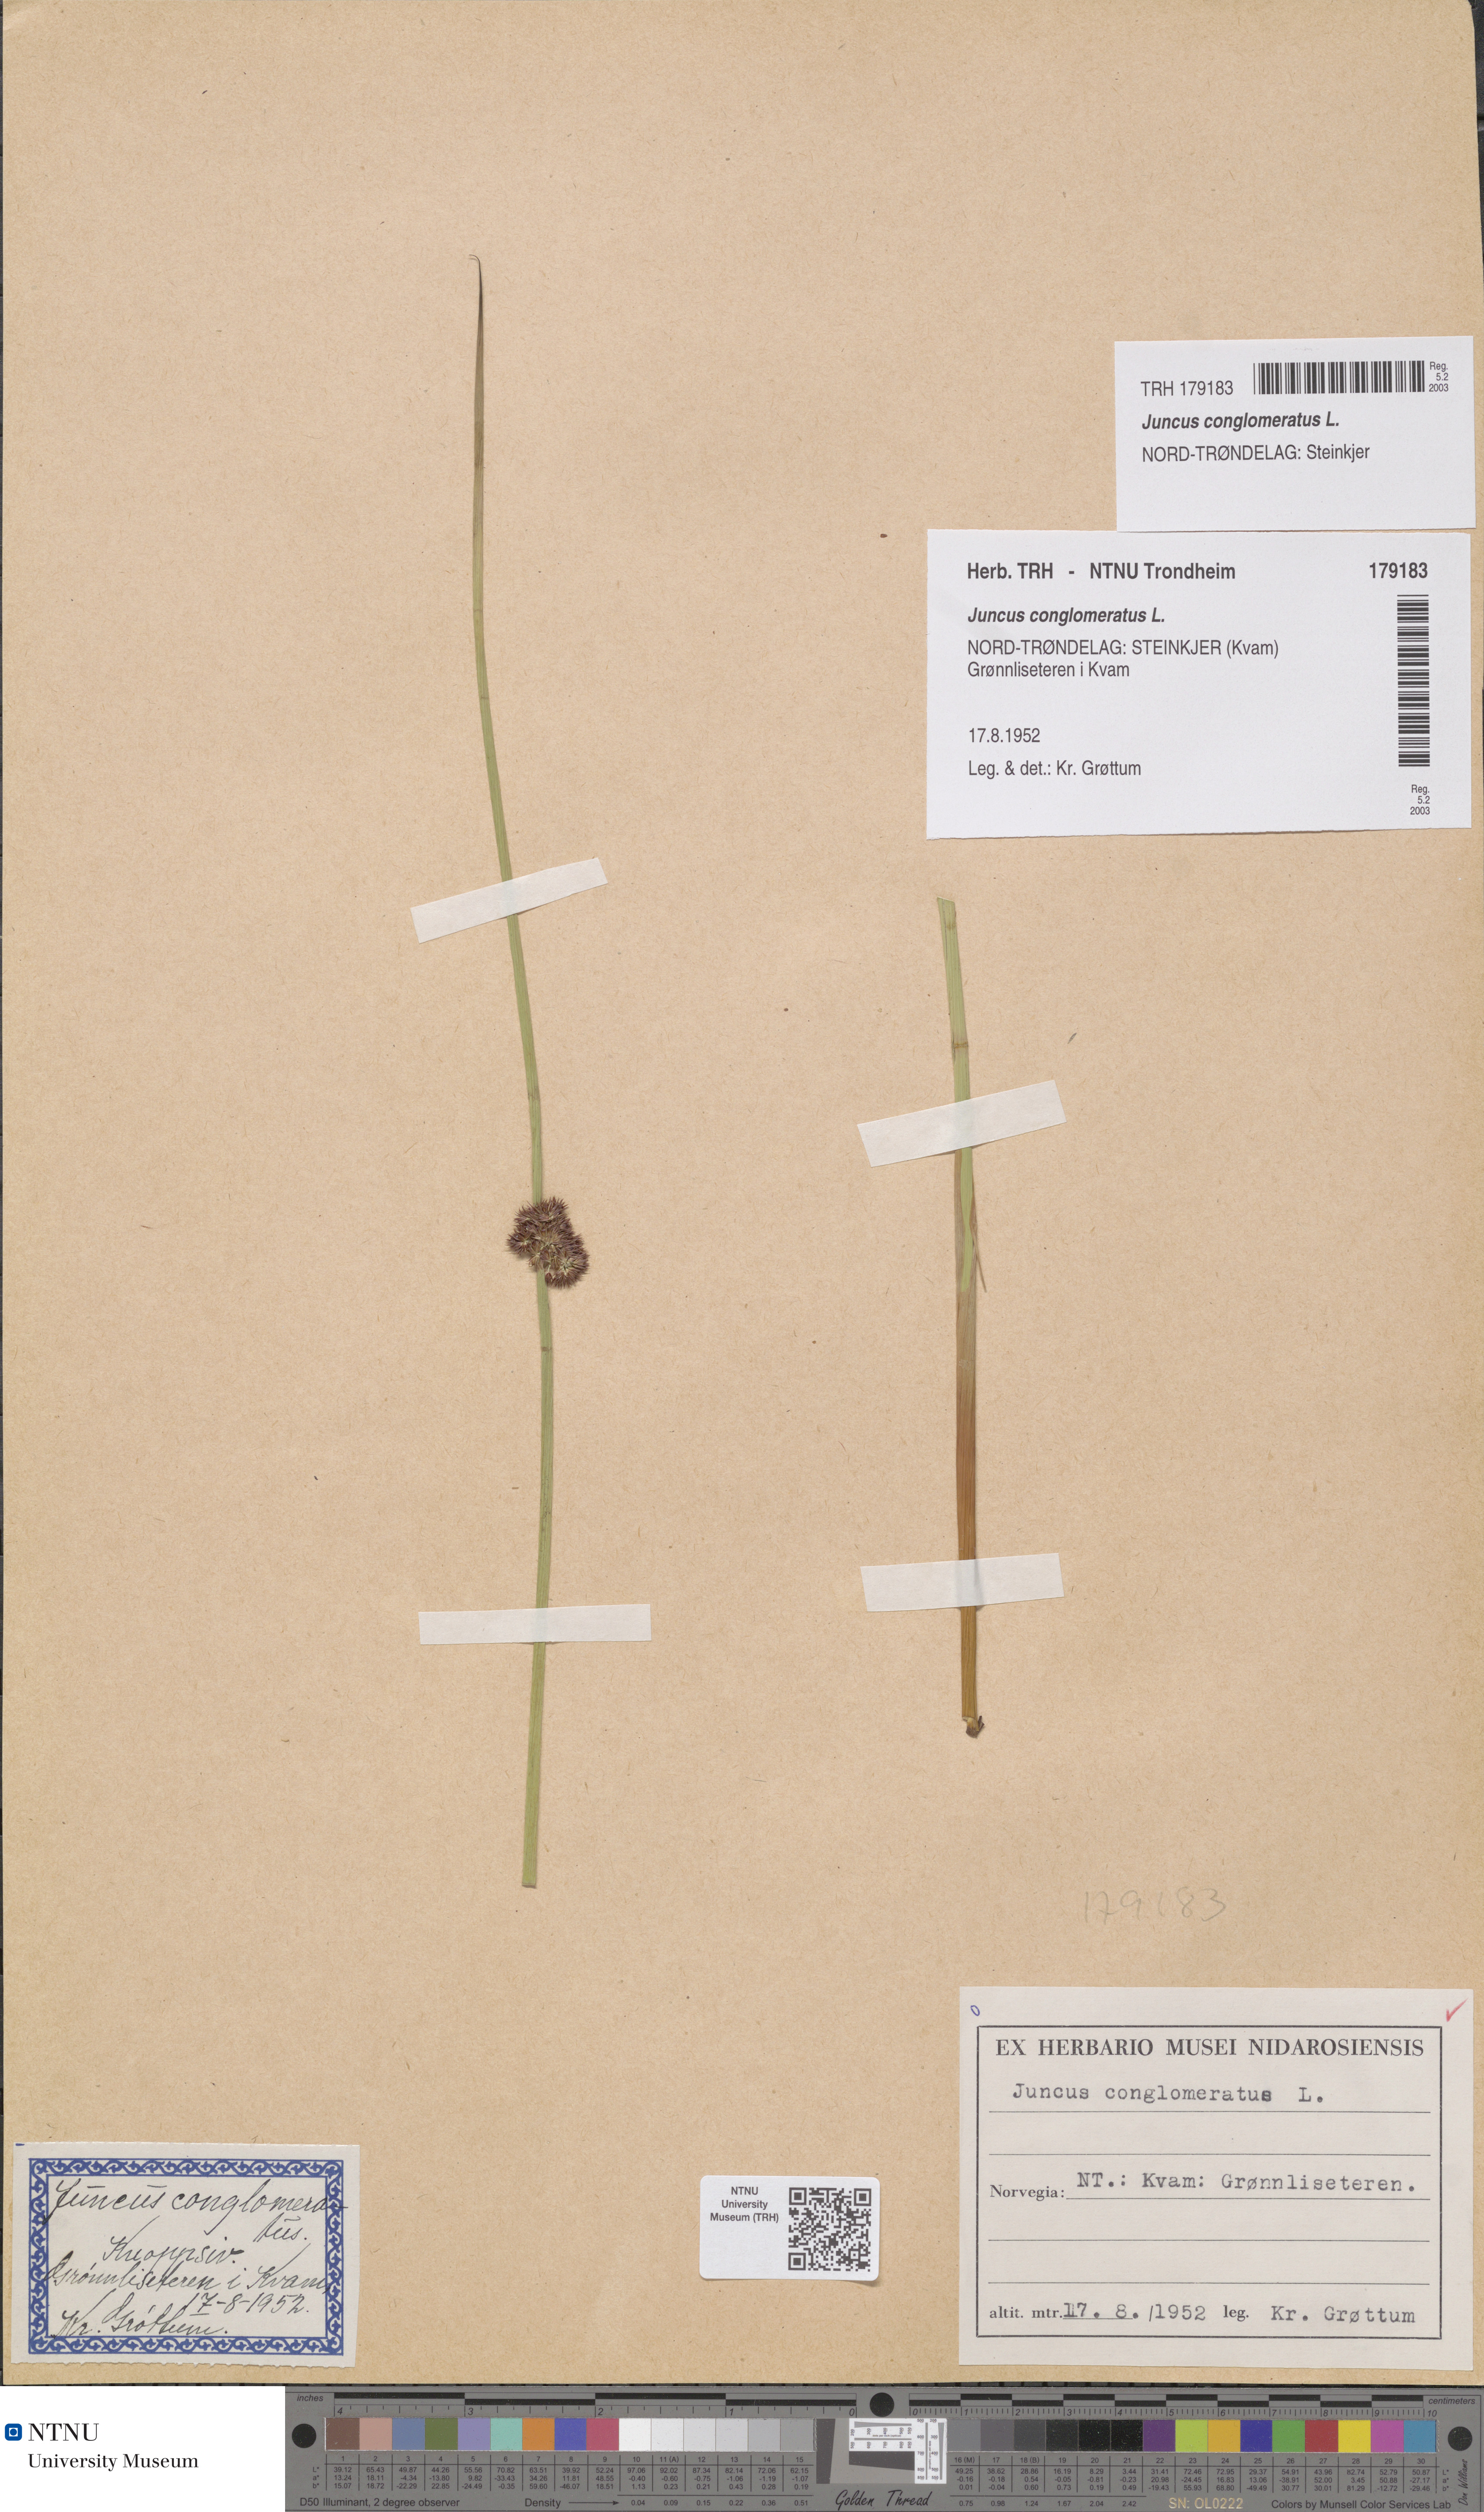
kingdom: Plantae
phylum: Tracheophyta
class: Liliopsida
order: Poales
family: Juncaceae
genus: Juncus
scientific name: Juncus conglomeratus
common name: Compact rush
